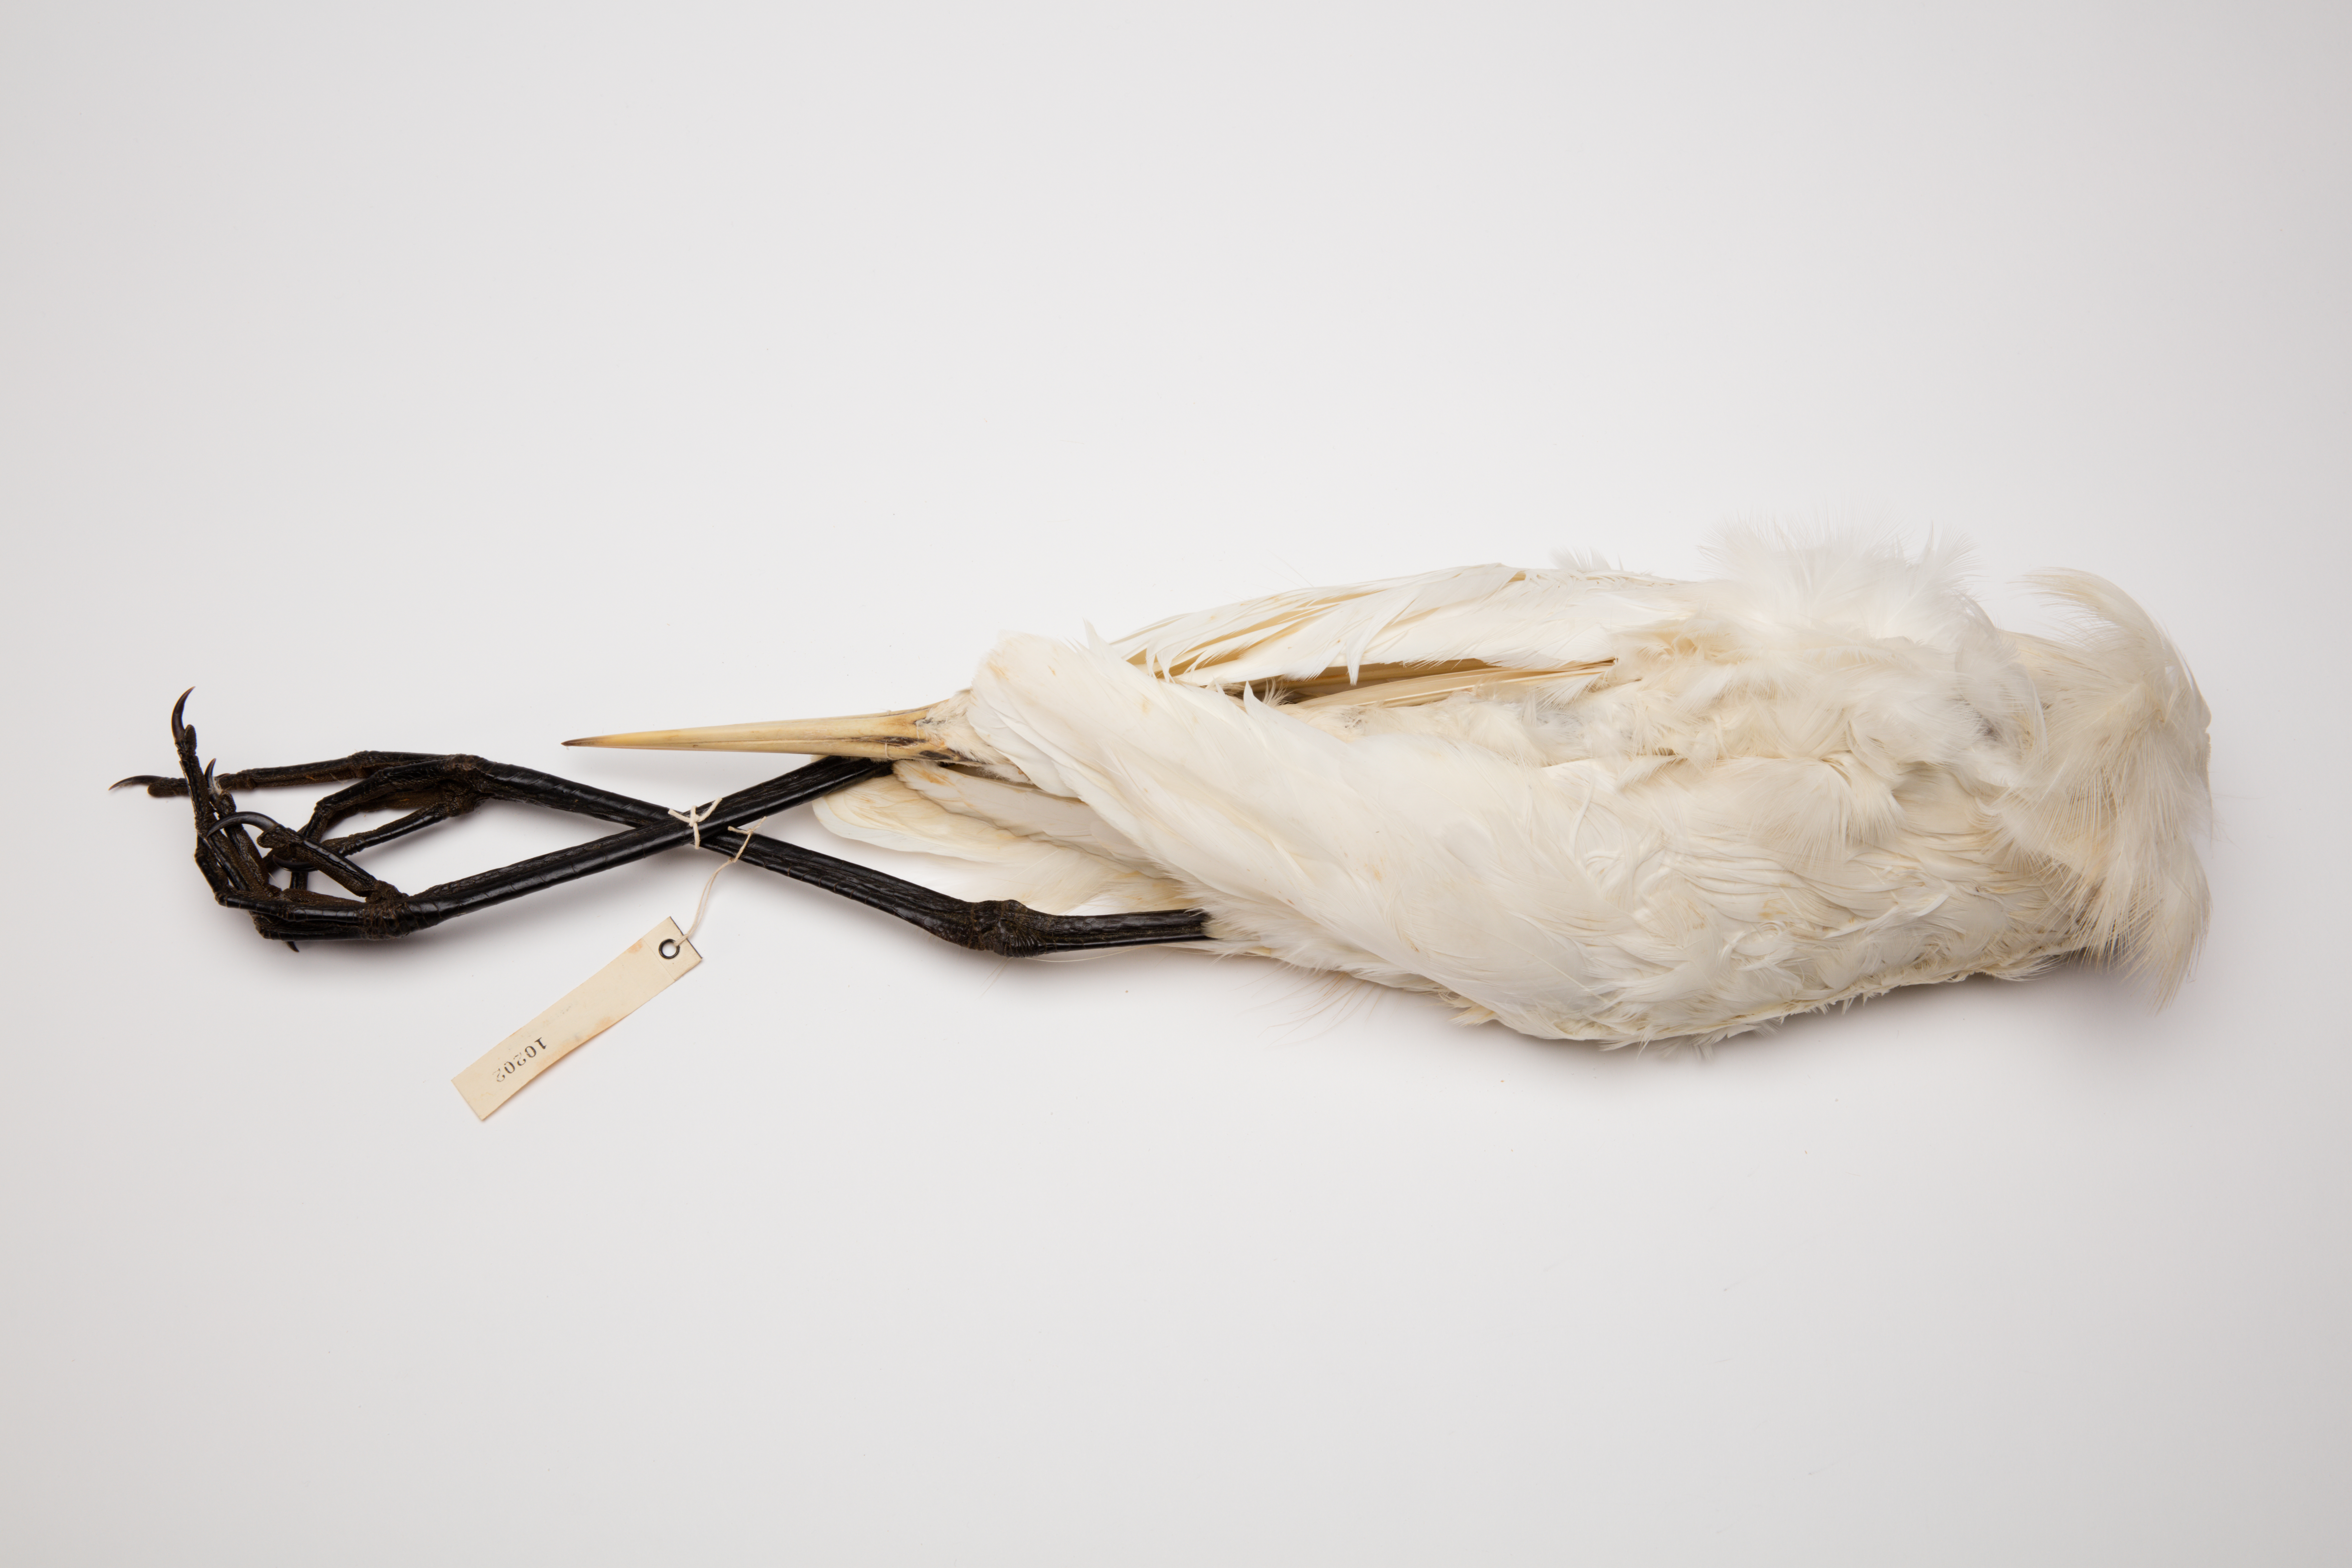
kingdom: Animalia
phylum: Chordata
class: Aves
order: Pelecaniformes
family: Ardeidae
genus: Ardea
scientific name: Ardea modesta
